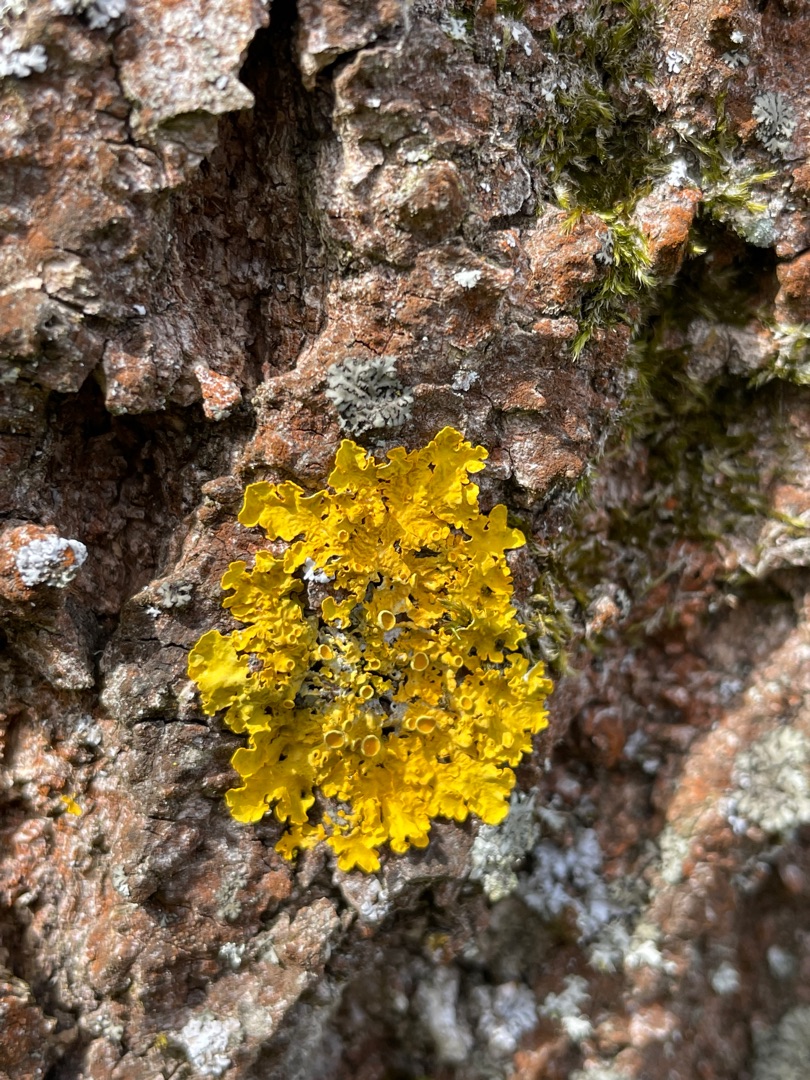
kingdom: Fungi
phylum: Ascomycota
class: Lecanoromycetes
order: Teloschistales
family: Teloschistaceae
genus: Xanthoria
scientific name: Xanthoria parietina
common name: Almindelig væggelav
